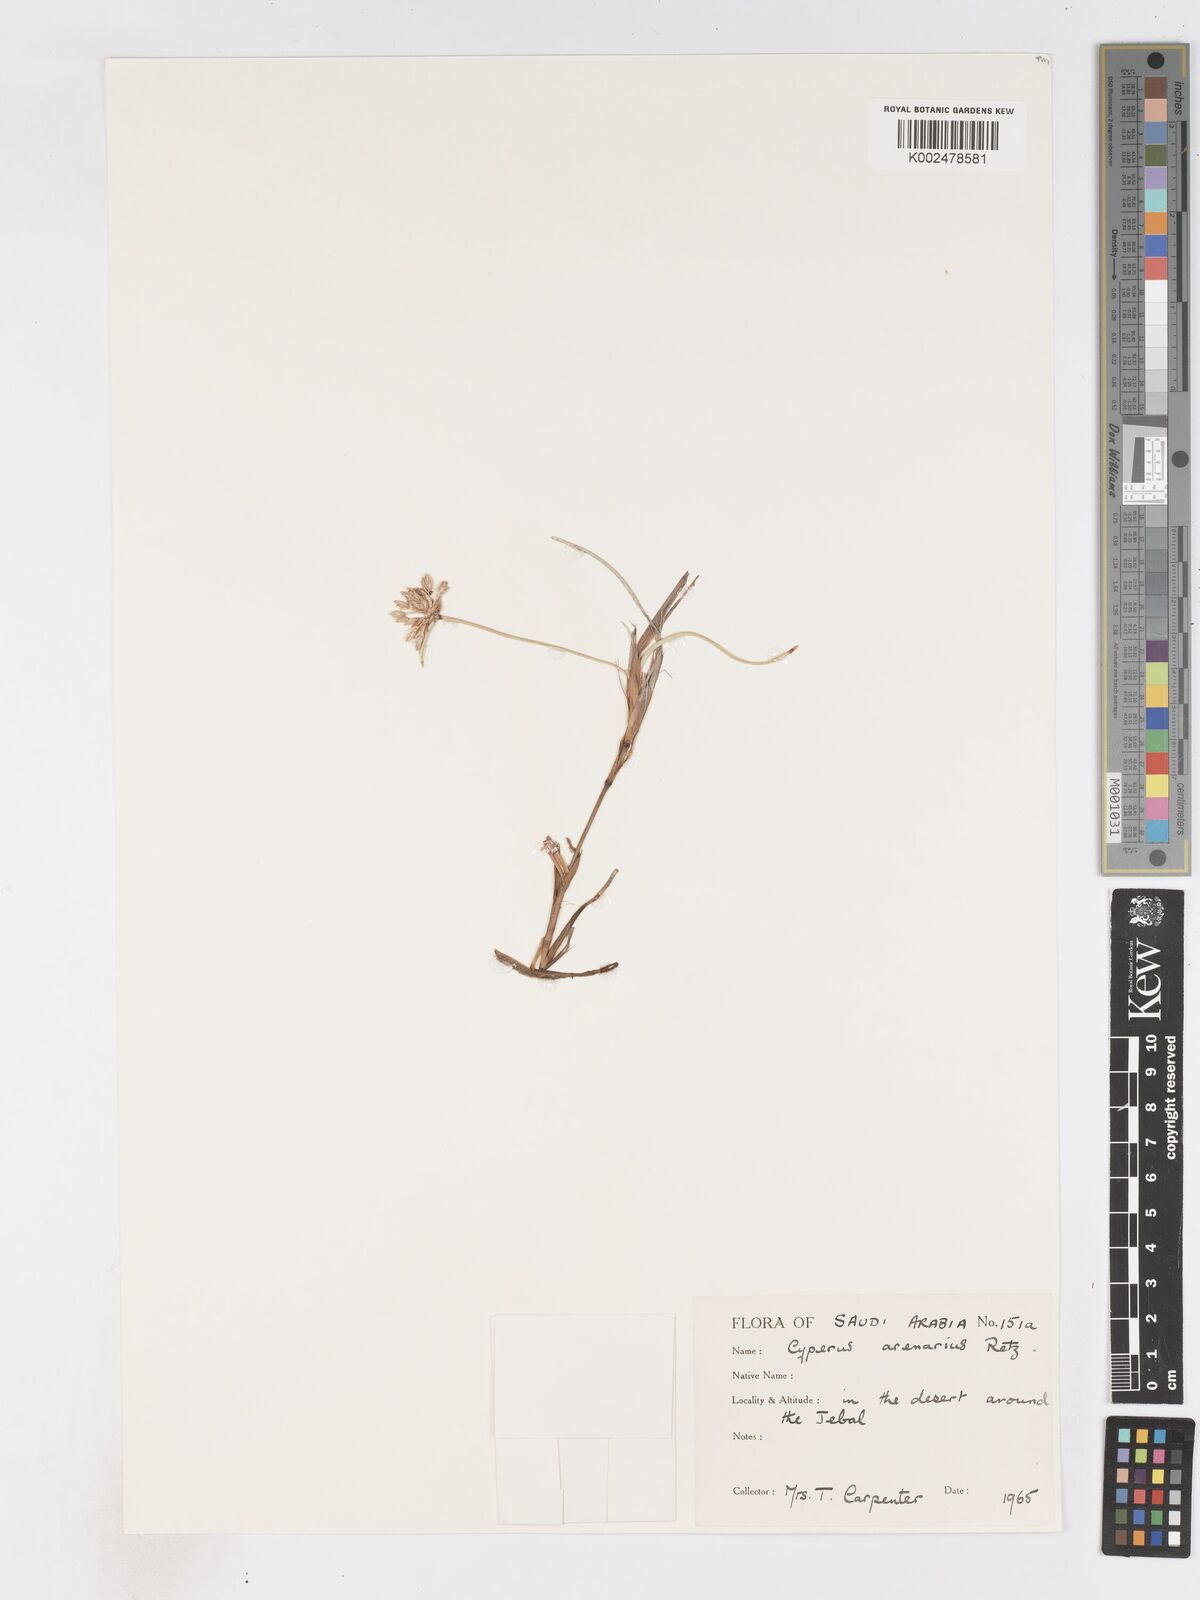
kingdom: Plantae
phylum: Tracheophyta
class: Liliopsida
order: Poales
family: Cyperaceae
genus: Cyperus
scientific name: Cyperus arenarius
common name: Dwarf sedge
